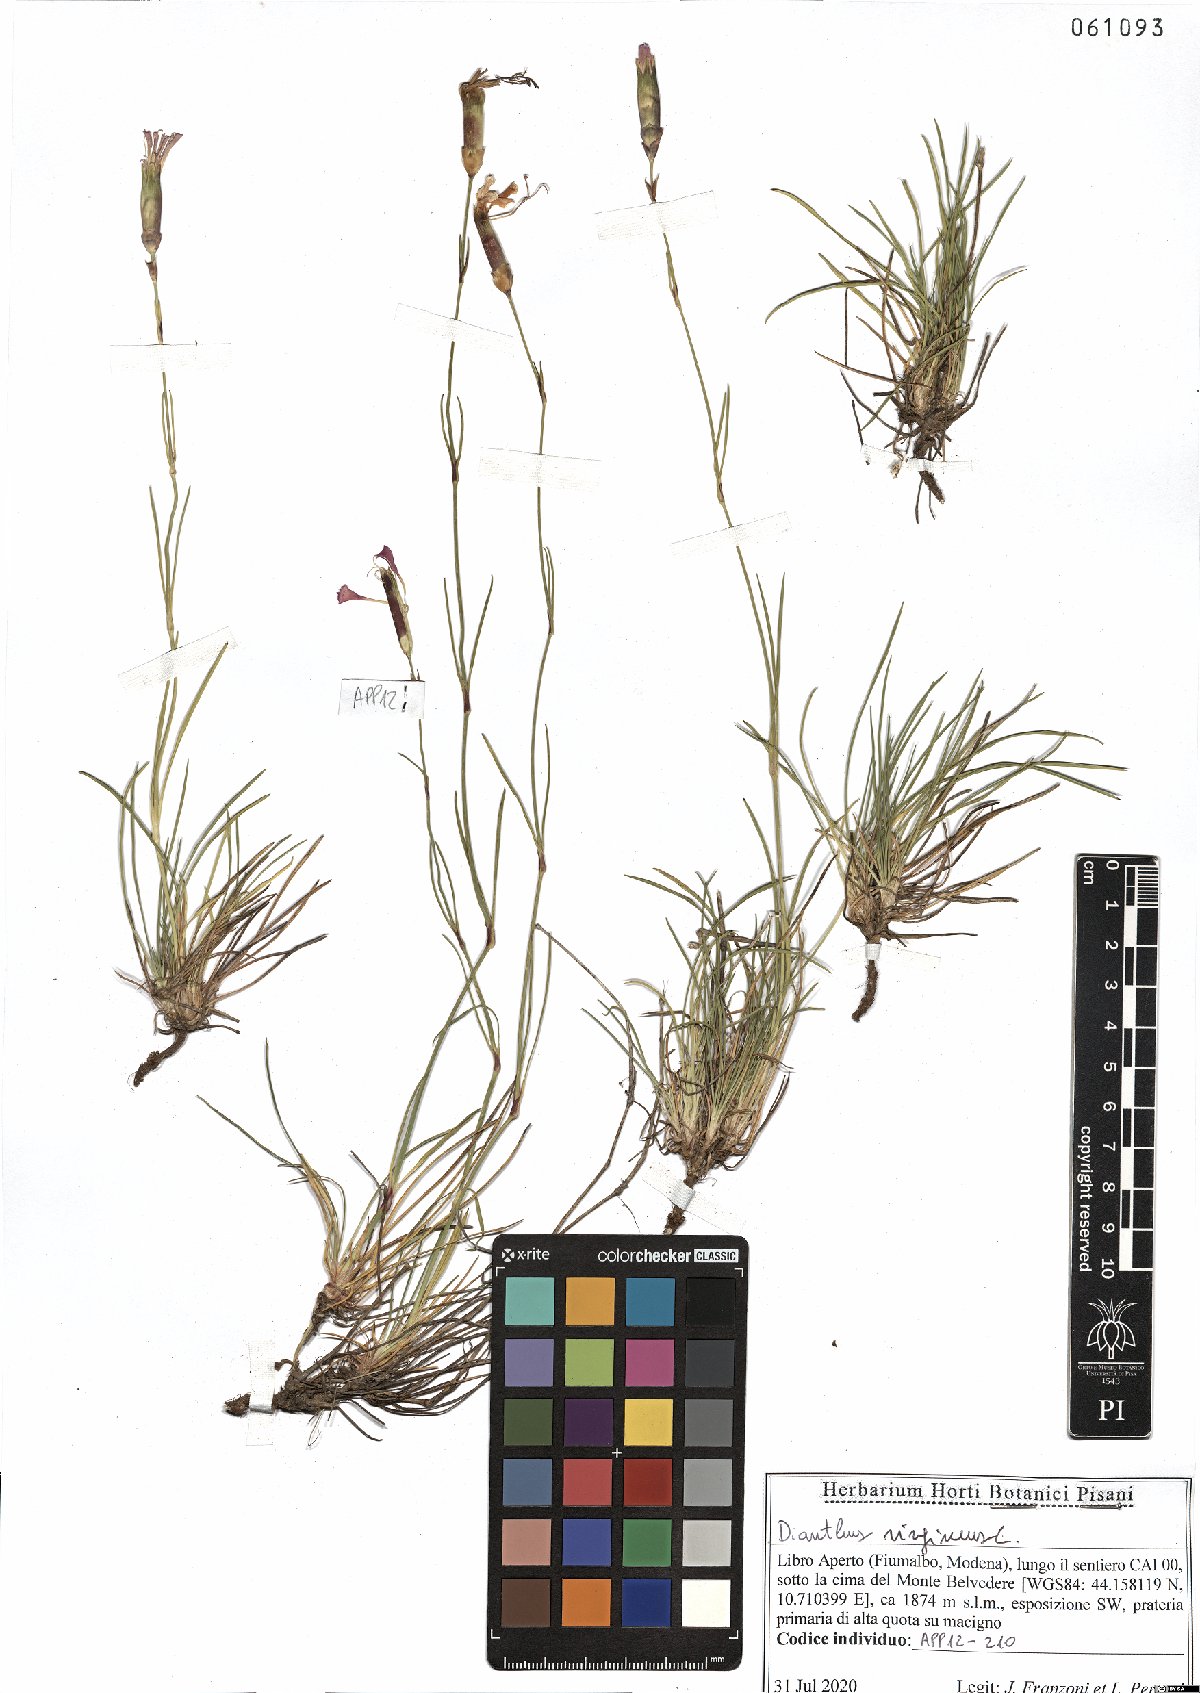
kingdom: Plantae
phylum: Tracheophyta
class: Magnoliopsida
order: Caryophyllales
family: Caryophyllaceae
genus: Dianthus
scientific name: Dianthus virgineus
